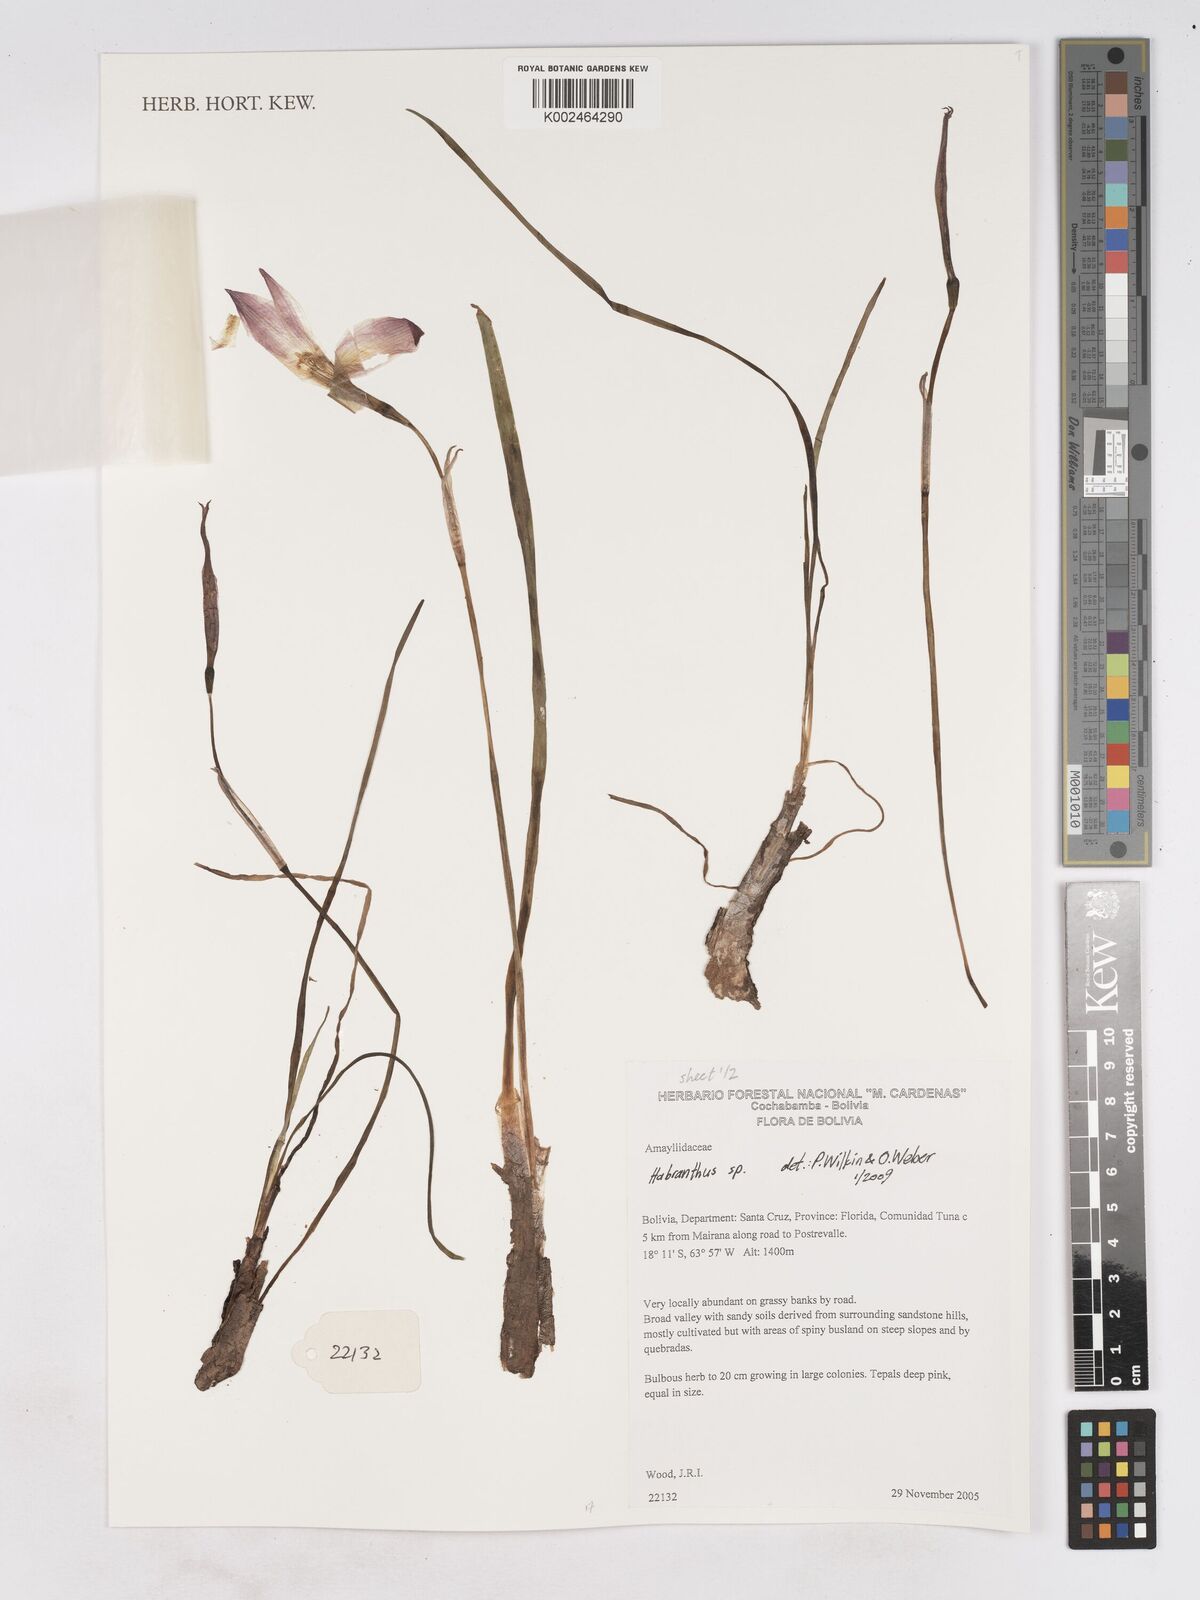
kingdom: Plantae
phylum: Tracheophyta
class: Liliopsida
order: Asparagales
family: Amaryllidaceae
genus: Zephyranthes
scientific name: Zephyranthes
